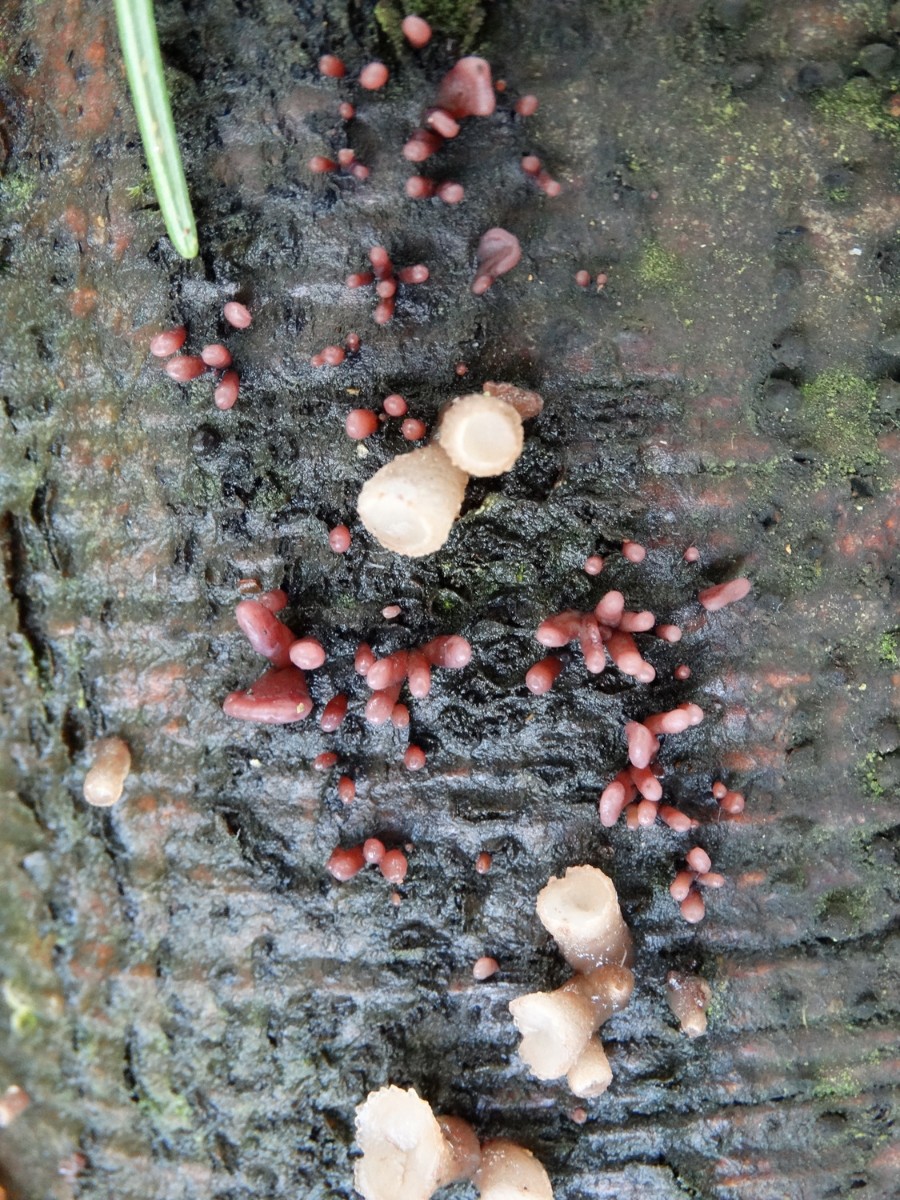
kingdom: Fungi
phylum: Ascomycota
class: Leotiomycetes
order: Helotiales
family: Gelatinodiscaceae
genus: Ascocoryne
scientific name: Ascocoryne sarcoides
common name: rødlilla sejskive
